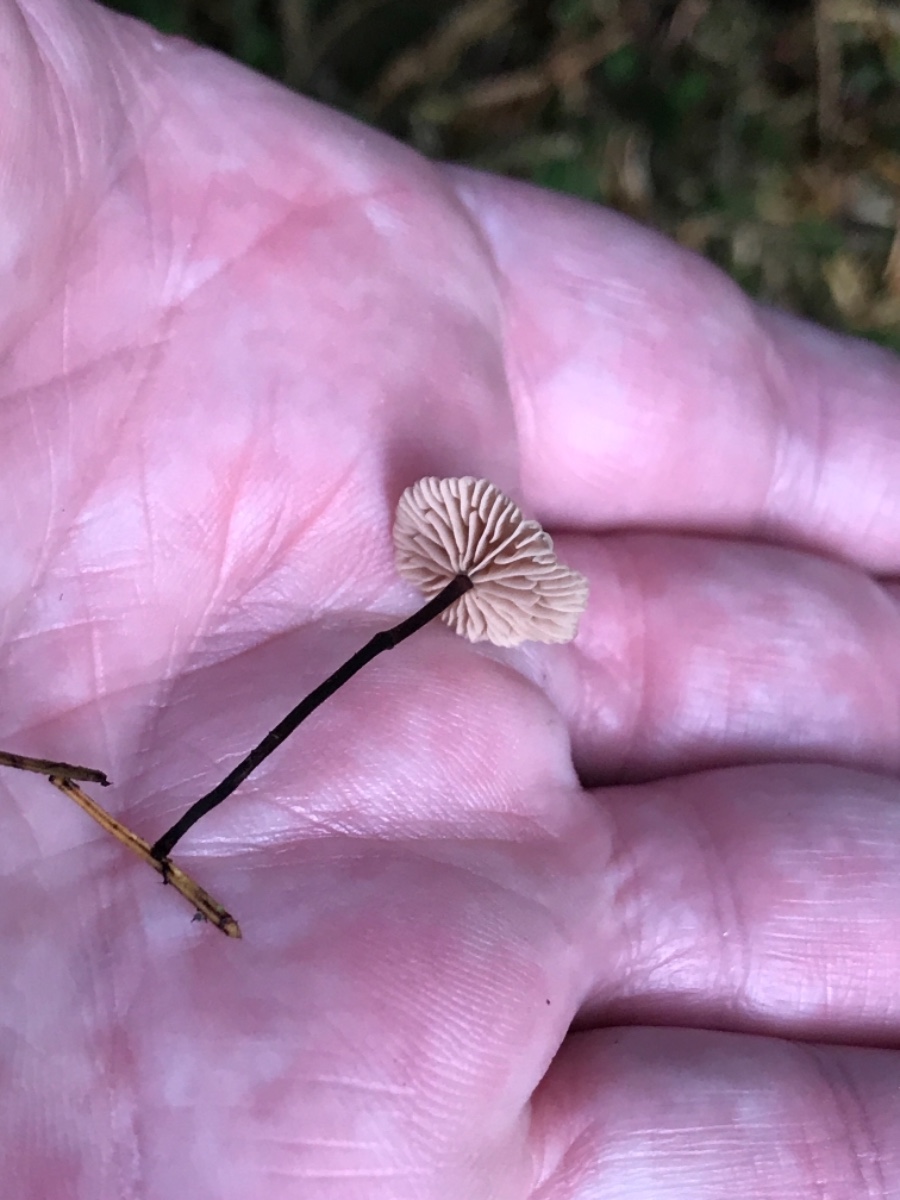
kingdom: Fungi
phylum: Basidiomycota
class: Agaricomycetes
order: Agaricales
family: Omphalotaceae
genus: Paragymnopus
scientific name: Paragymnopus perforans
